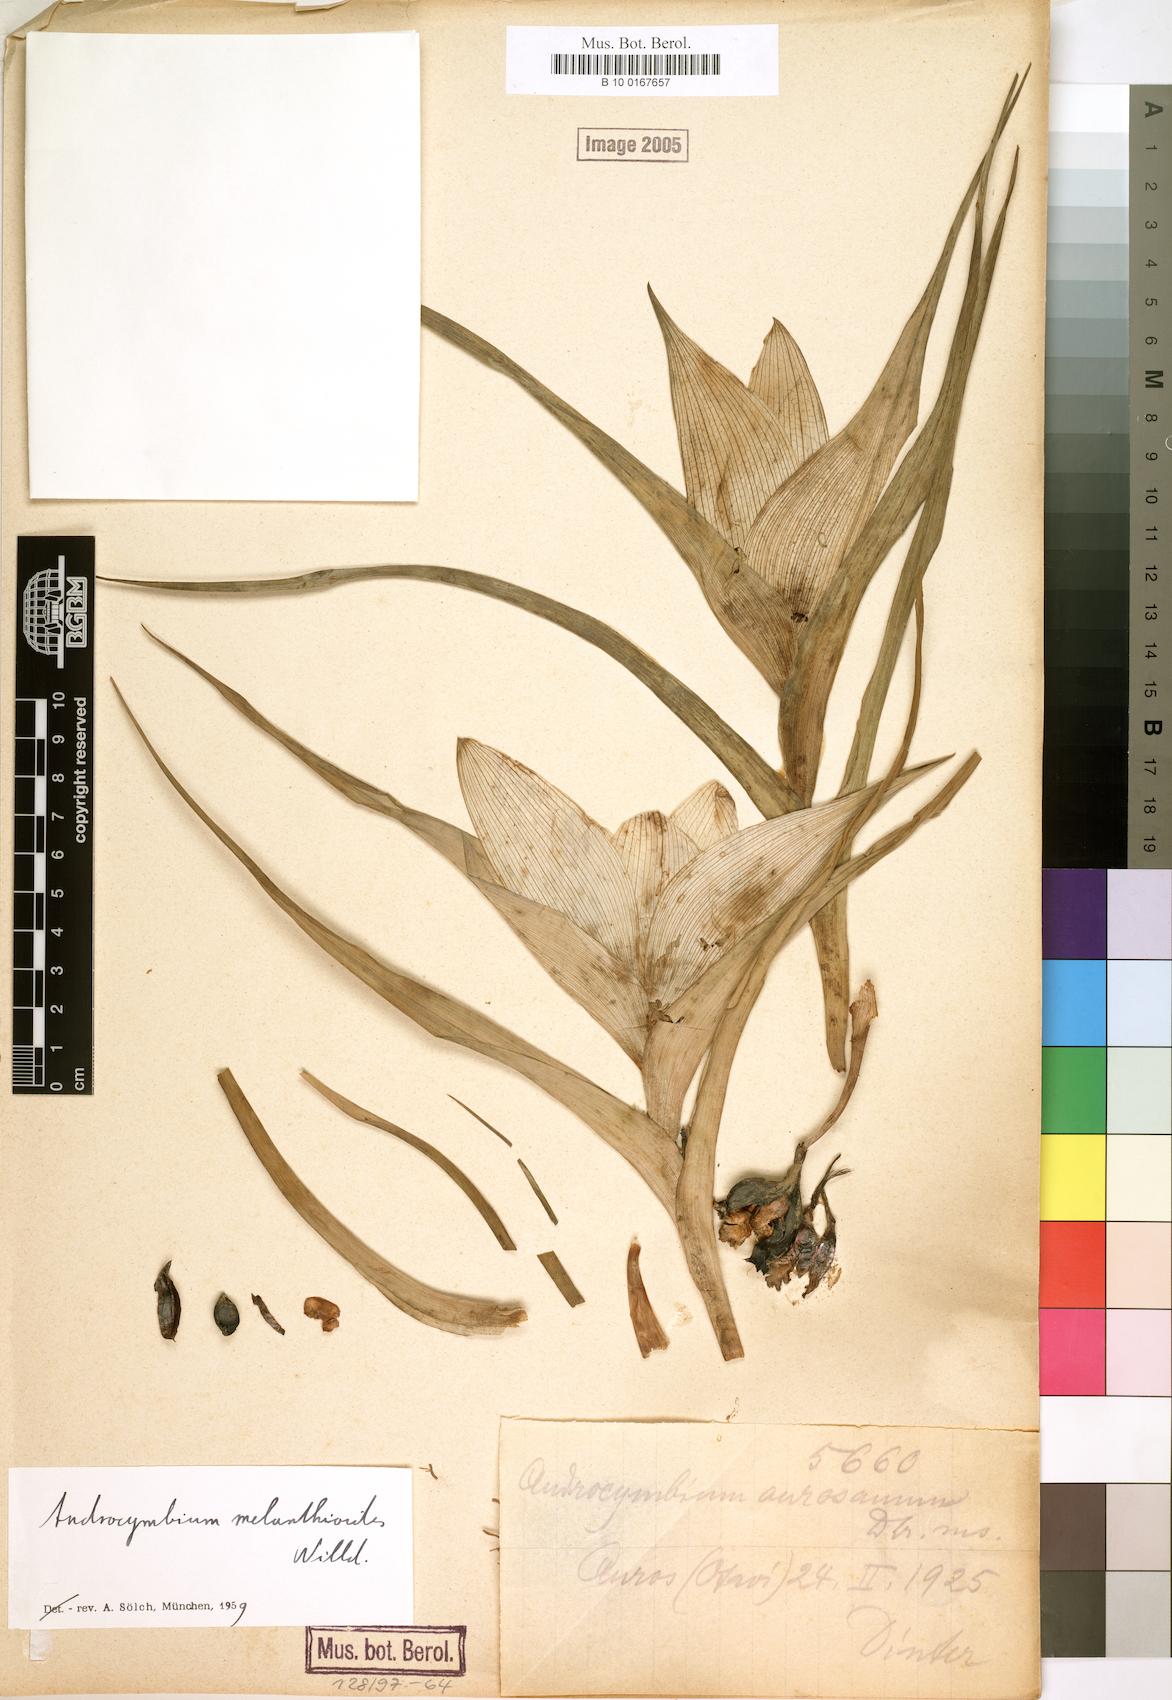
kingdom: Plantae
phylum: Tracheophyta
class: Liliopsida
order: Liliales
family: Colchicaceae
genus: Colchicum
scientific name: Colchicum melanthioides
